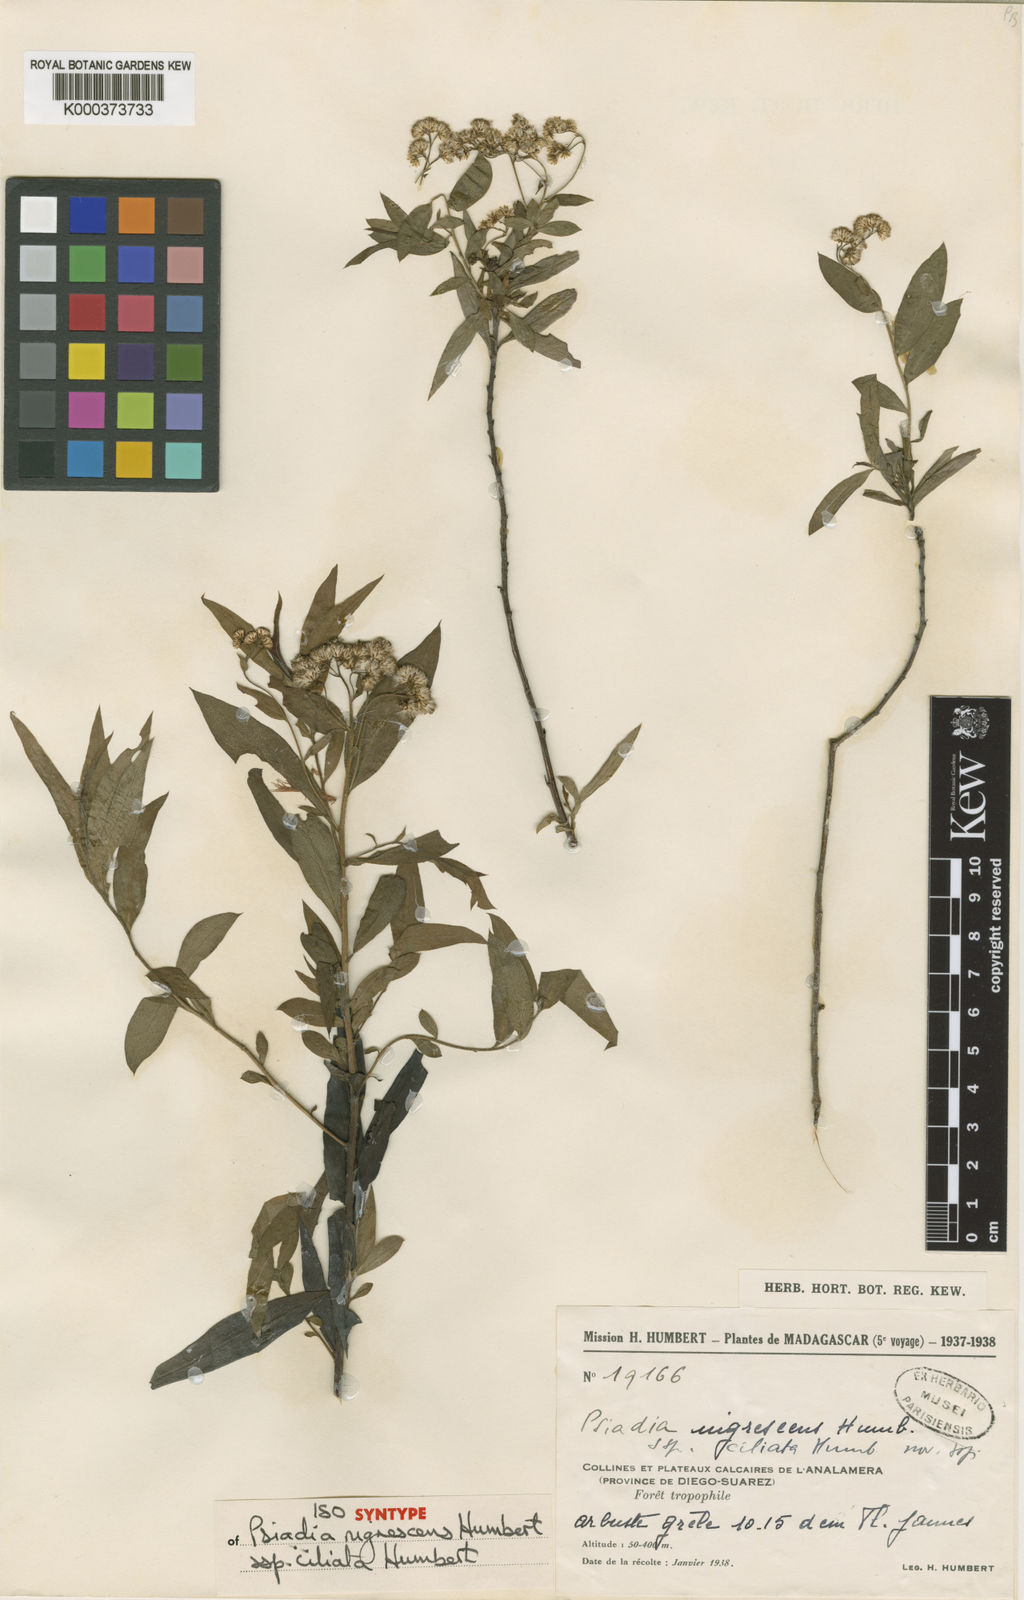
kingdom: Plantae
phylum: Tracheophyta
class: Magnoliopsida
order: Asterales
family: Asteraceae
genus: Psiadia
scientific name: Psiadia nigrescens
